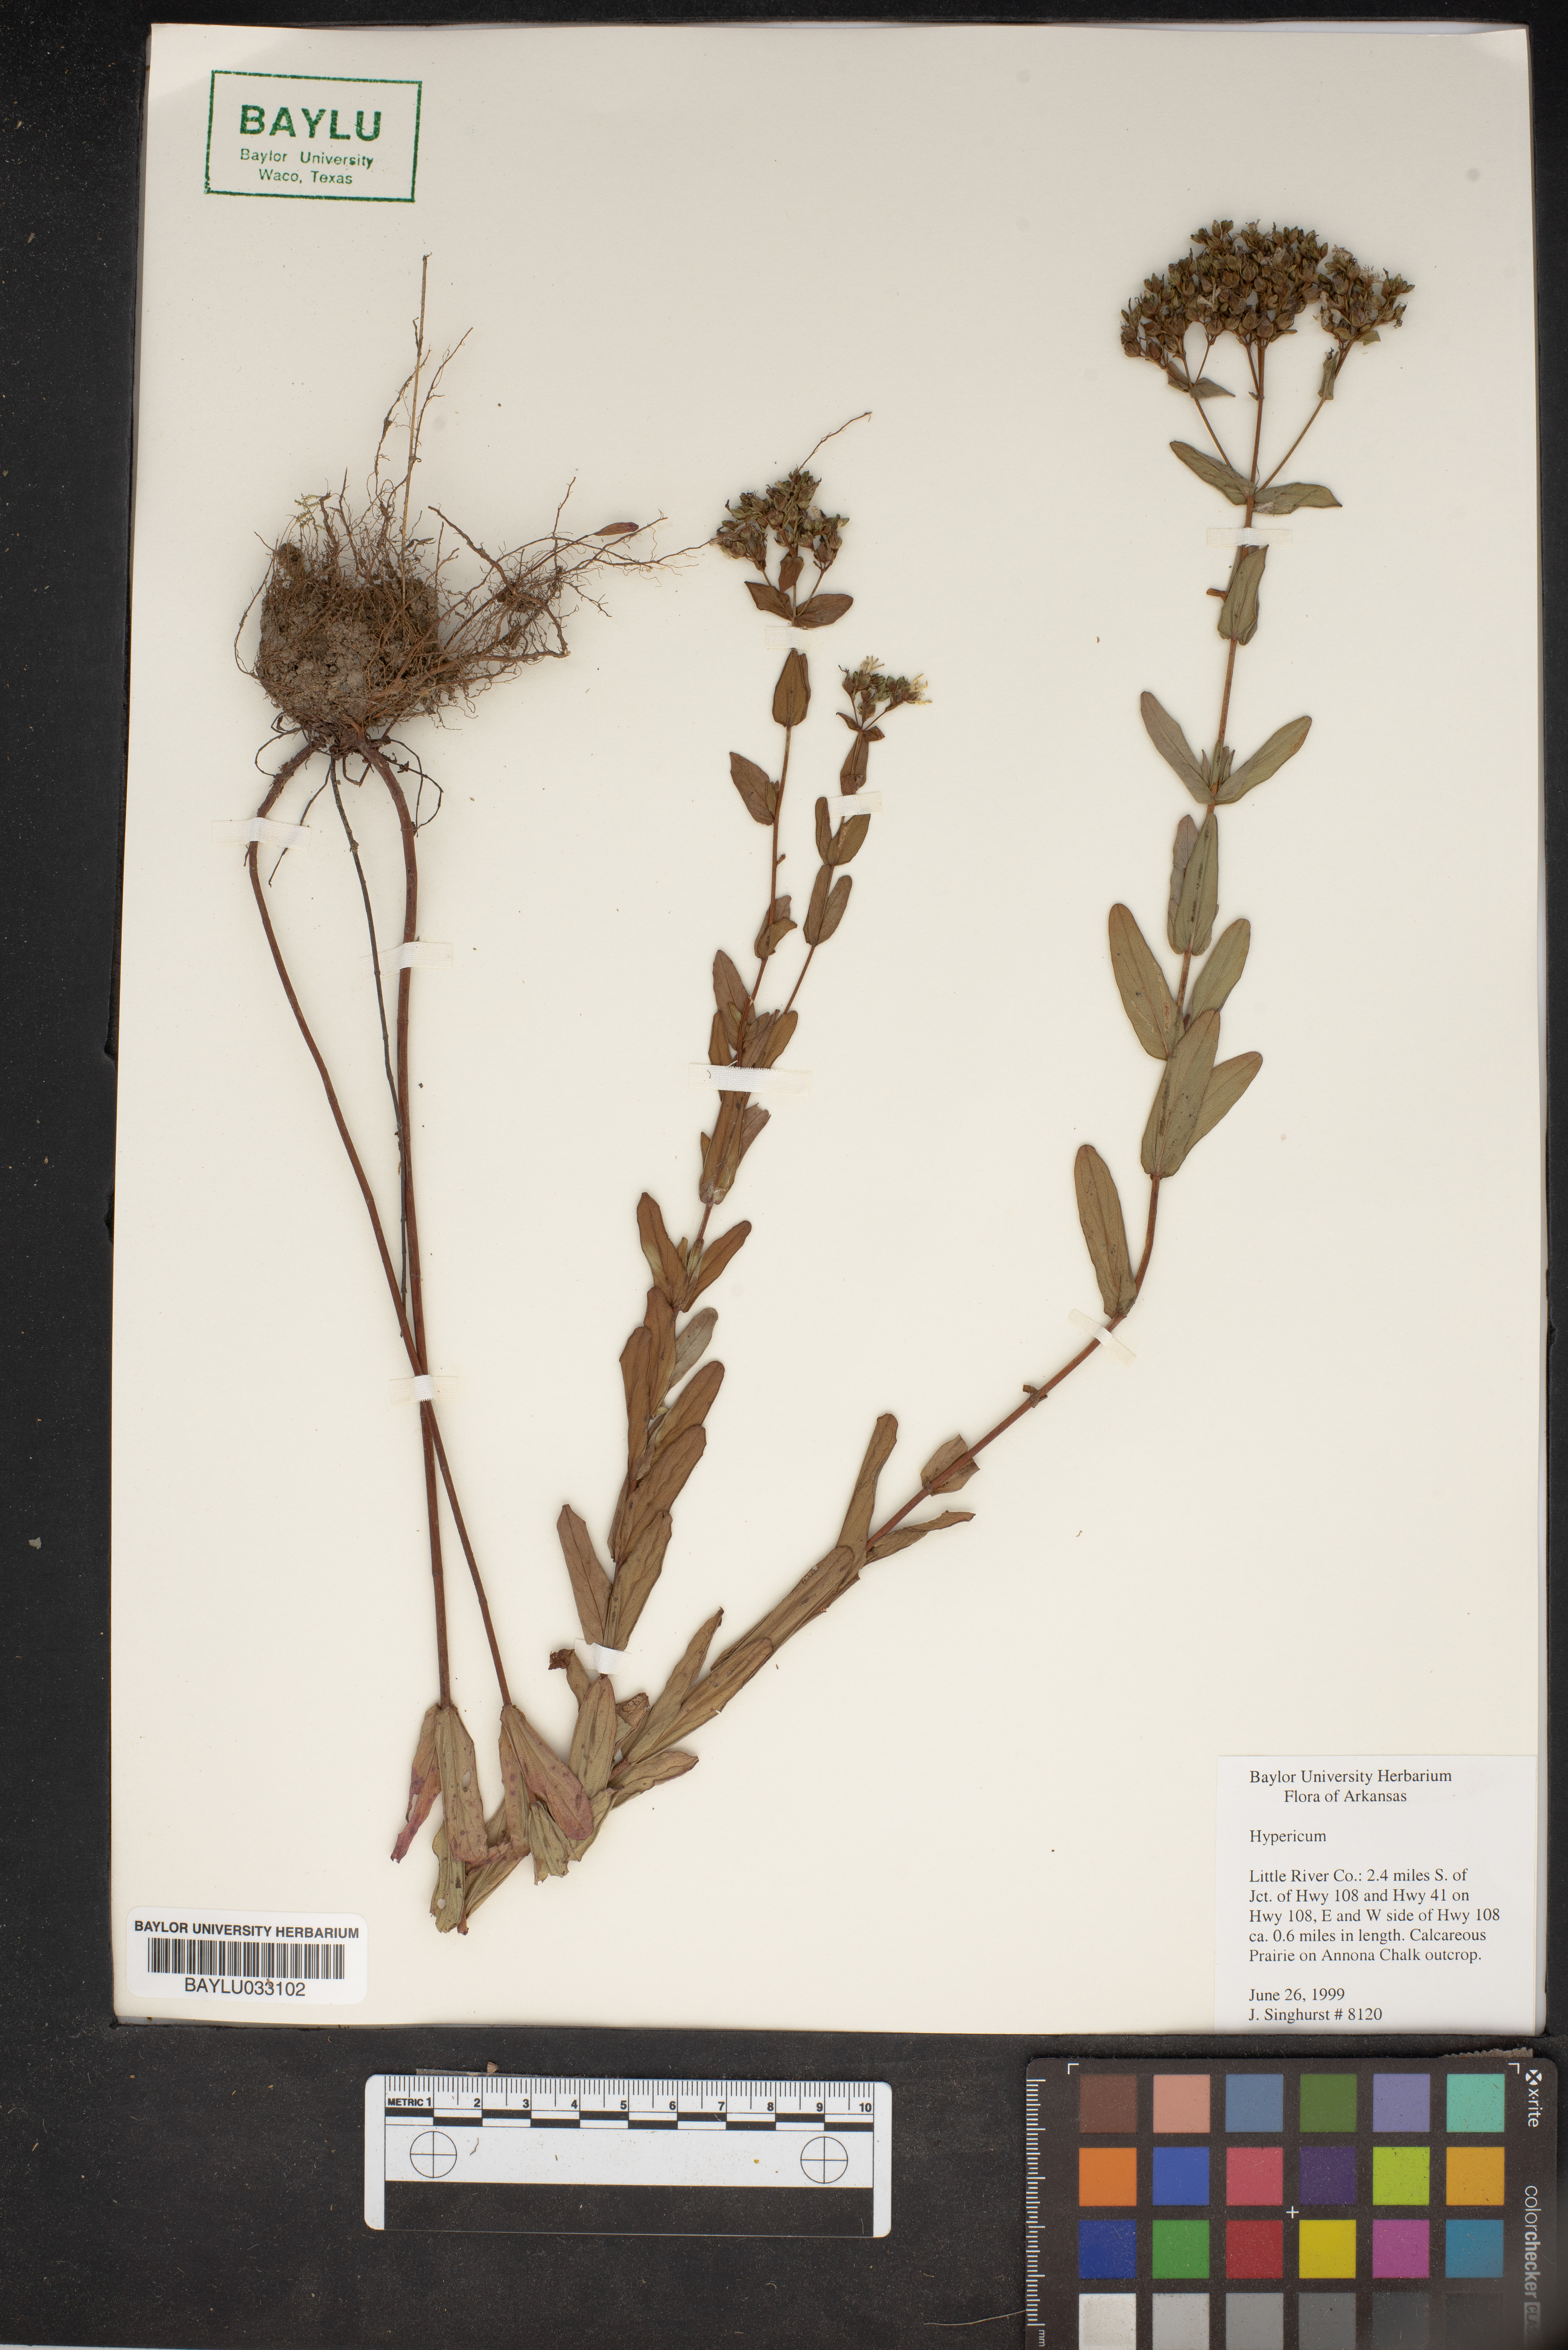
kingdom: Plantae
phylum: Tracheophyta
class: Magnoliopsida
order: Malpighiales
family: Hypericaceae
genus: Hypericum
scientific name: Hypericum
